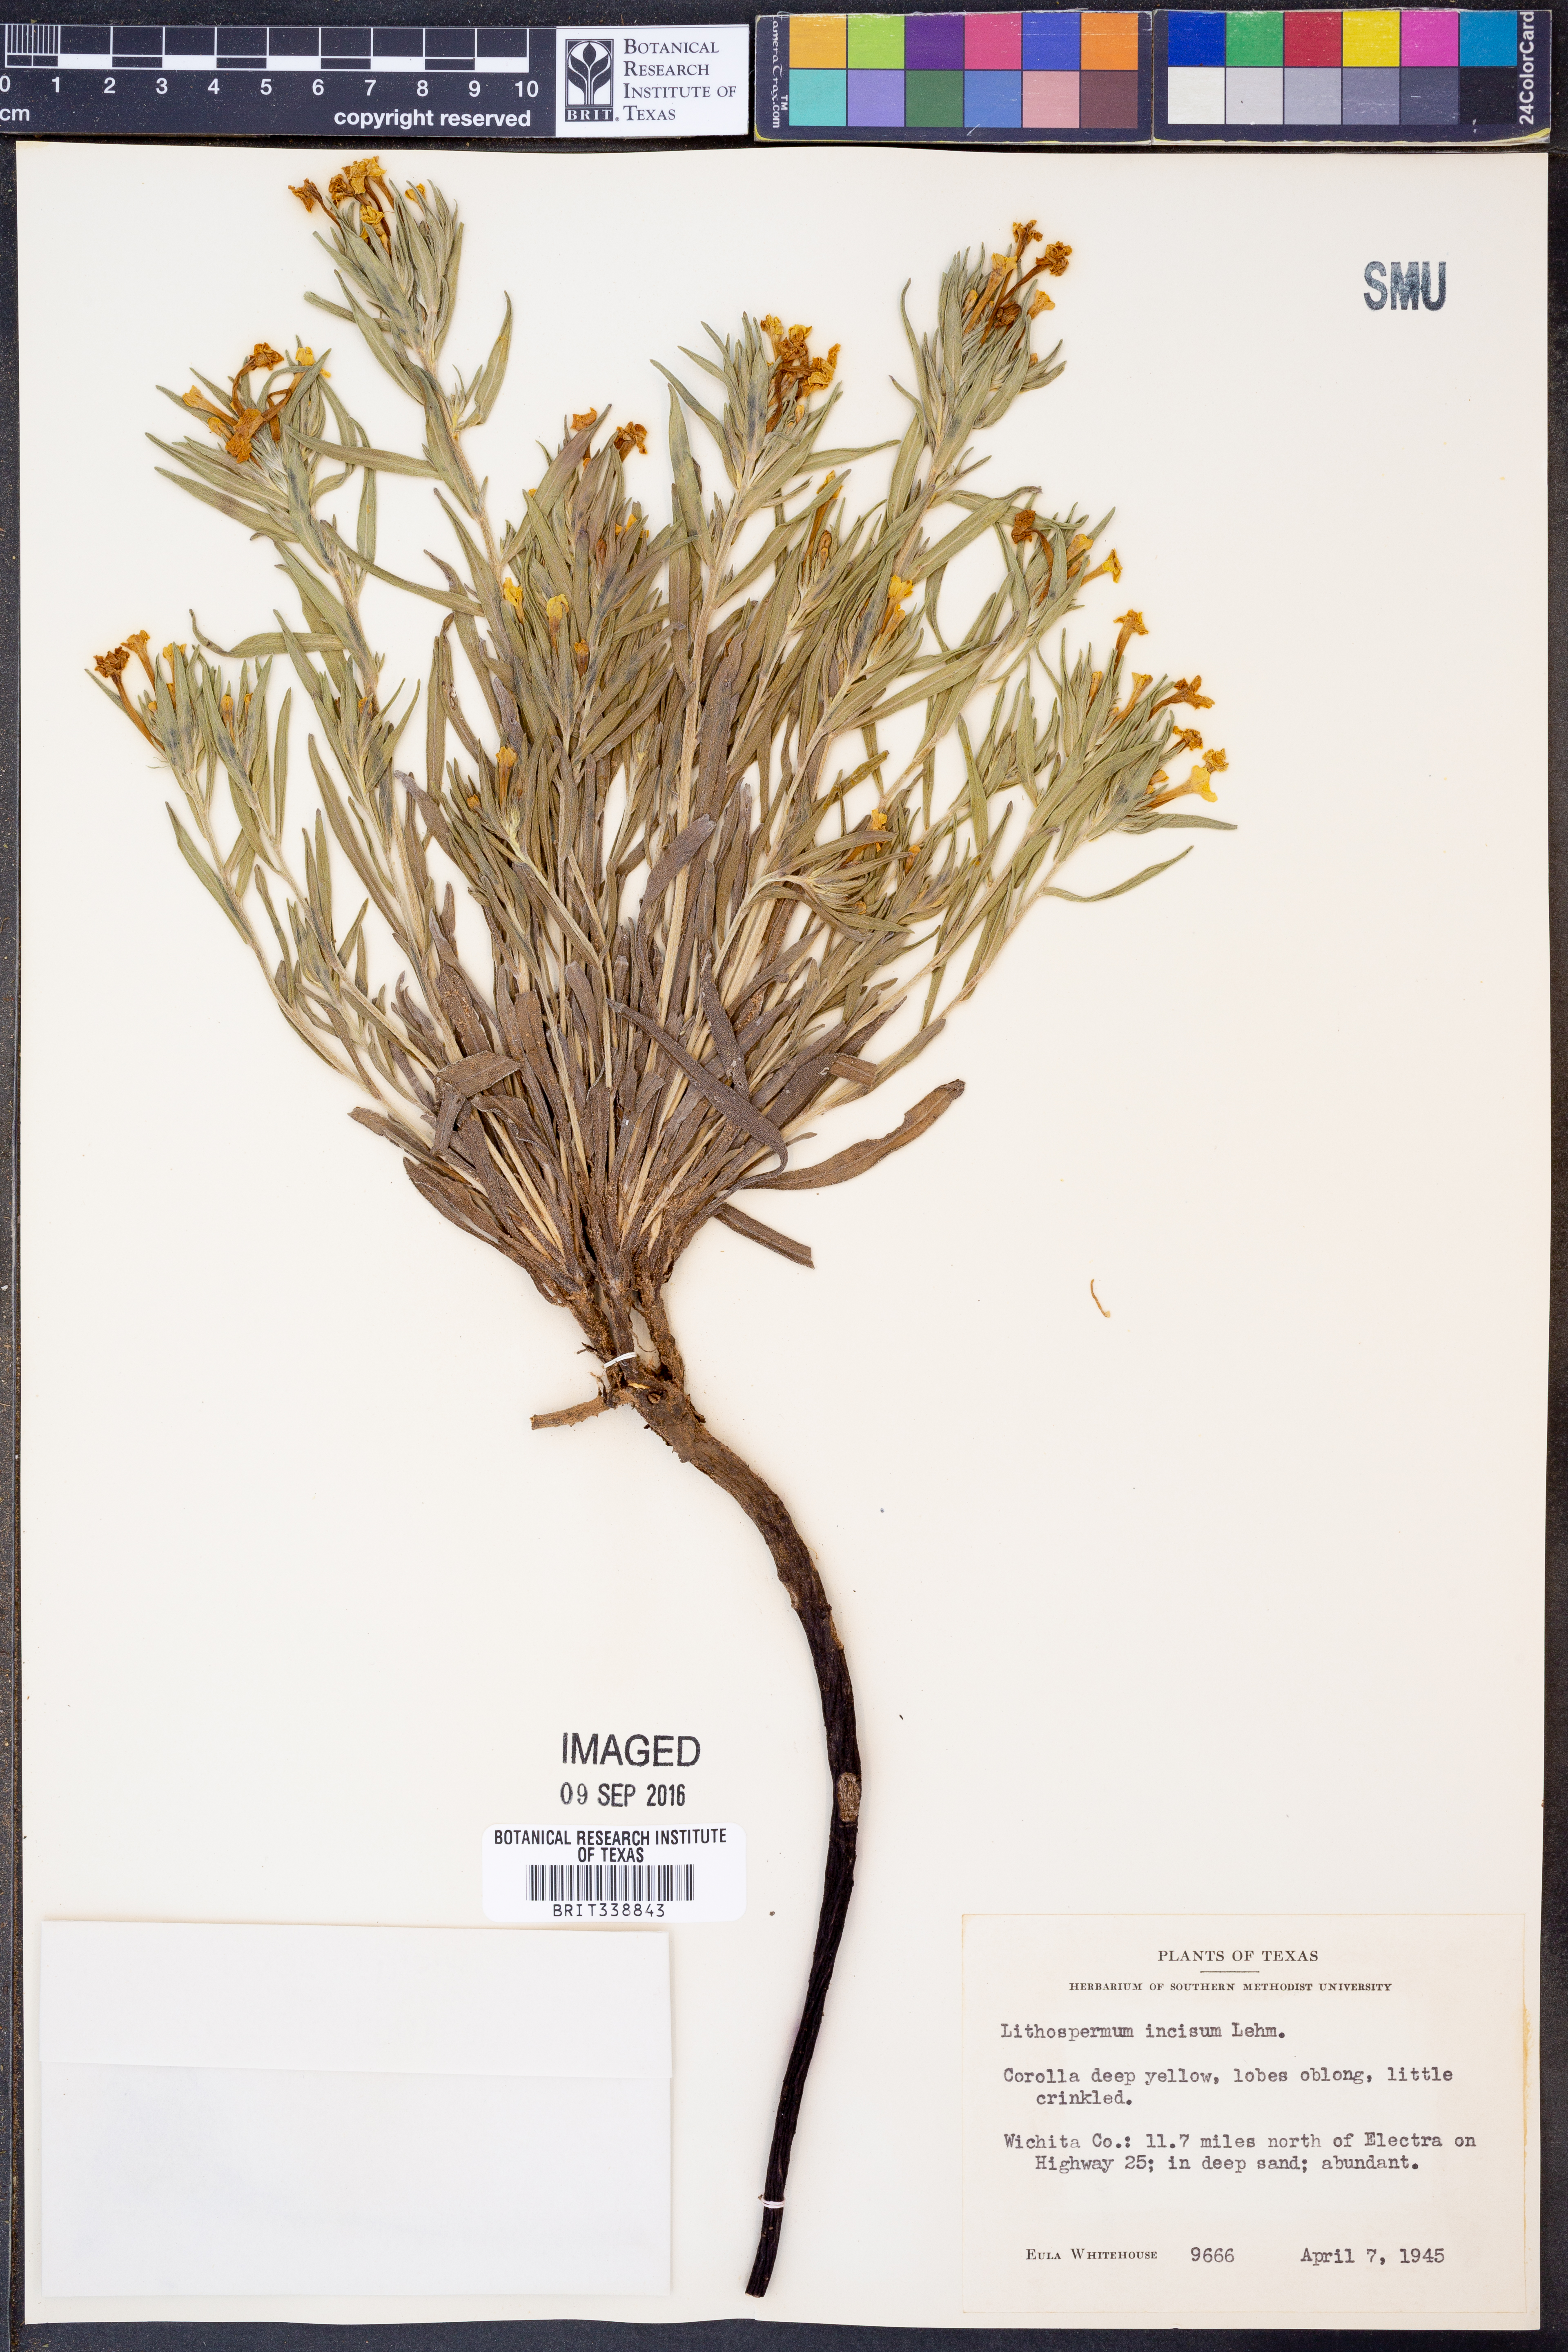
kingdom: Plantae
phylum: Tracheophyta
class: Magnoliopsida
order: Boraginales
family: Boraginaceae
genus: Lithospermum
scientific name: Lithospermum incisum
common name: Fringed gromwell
